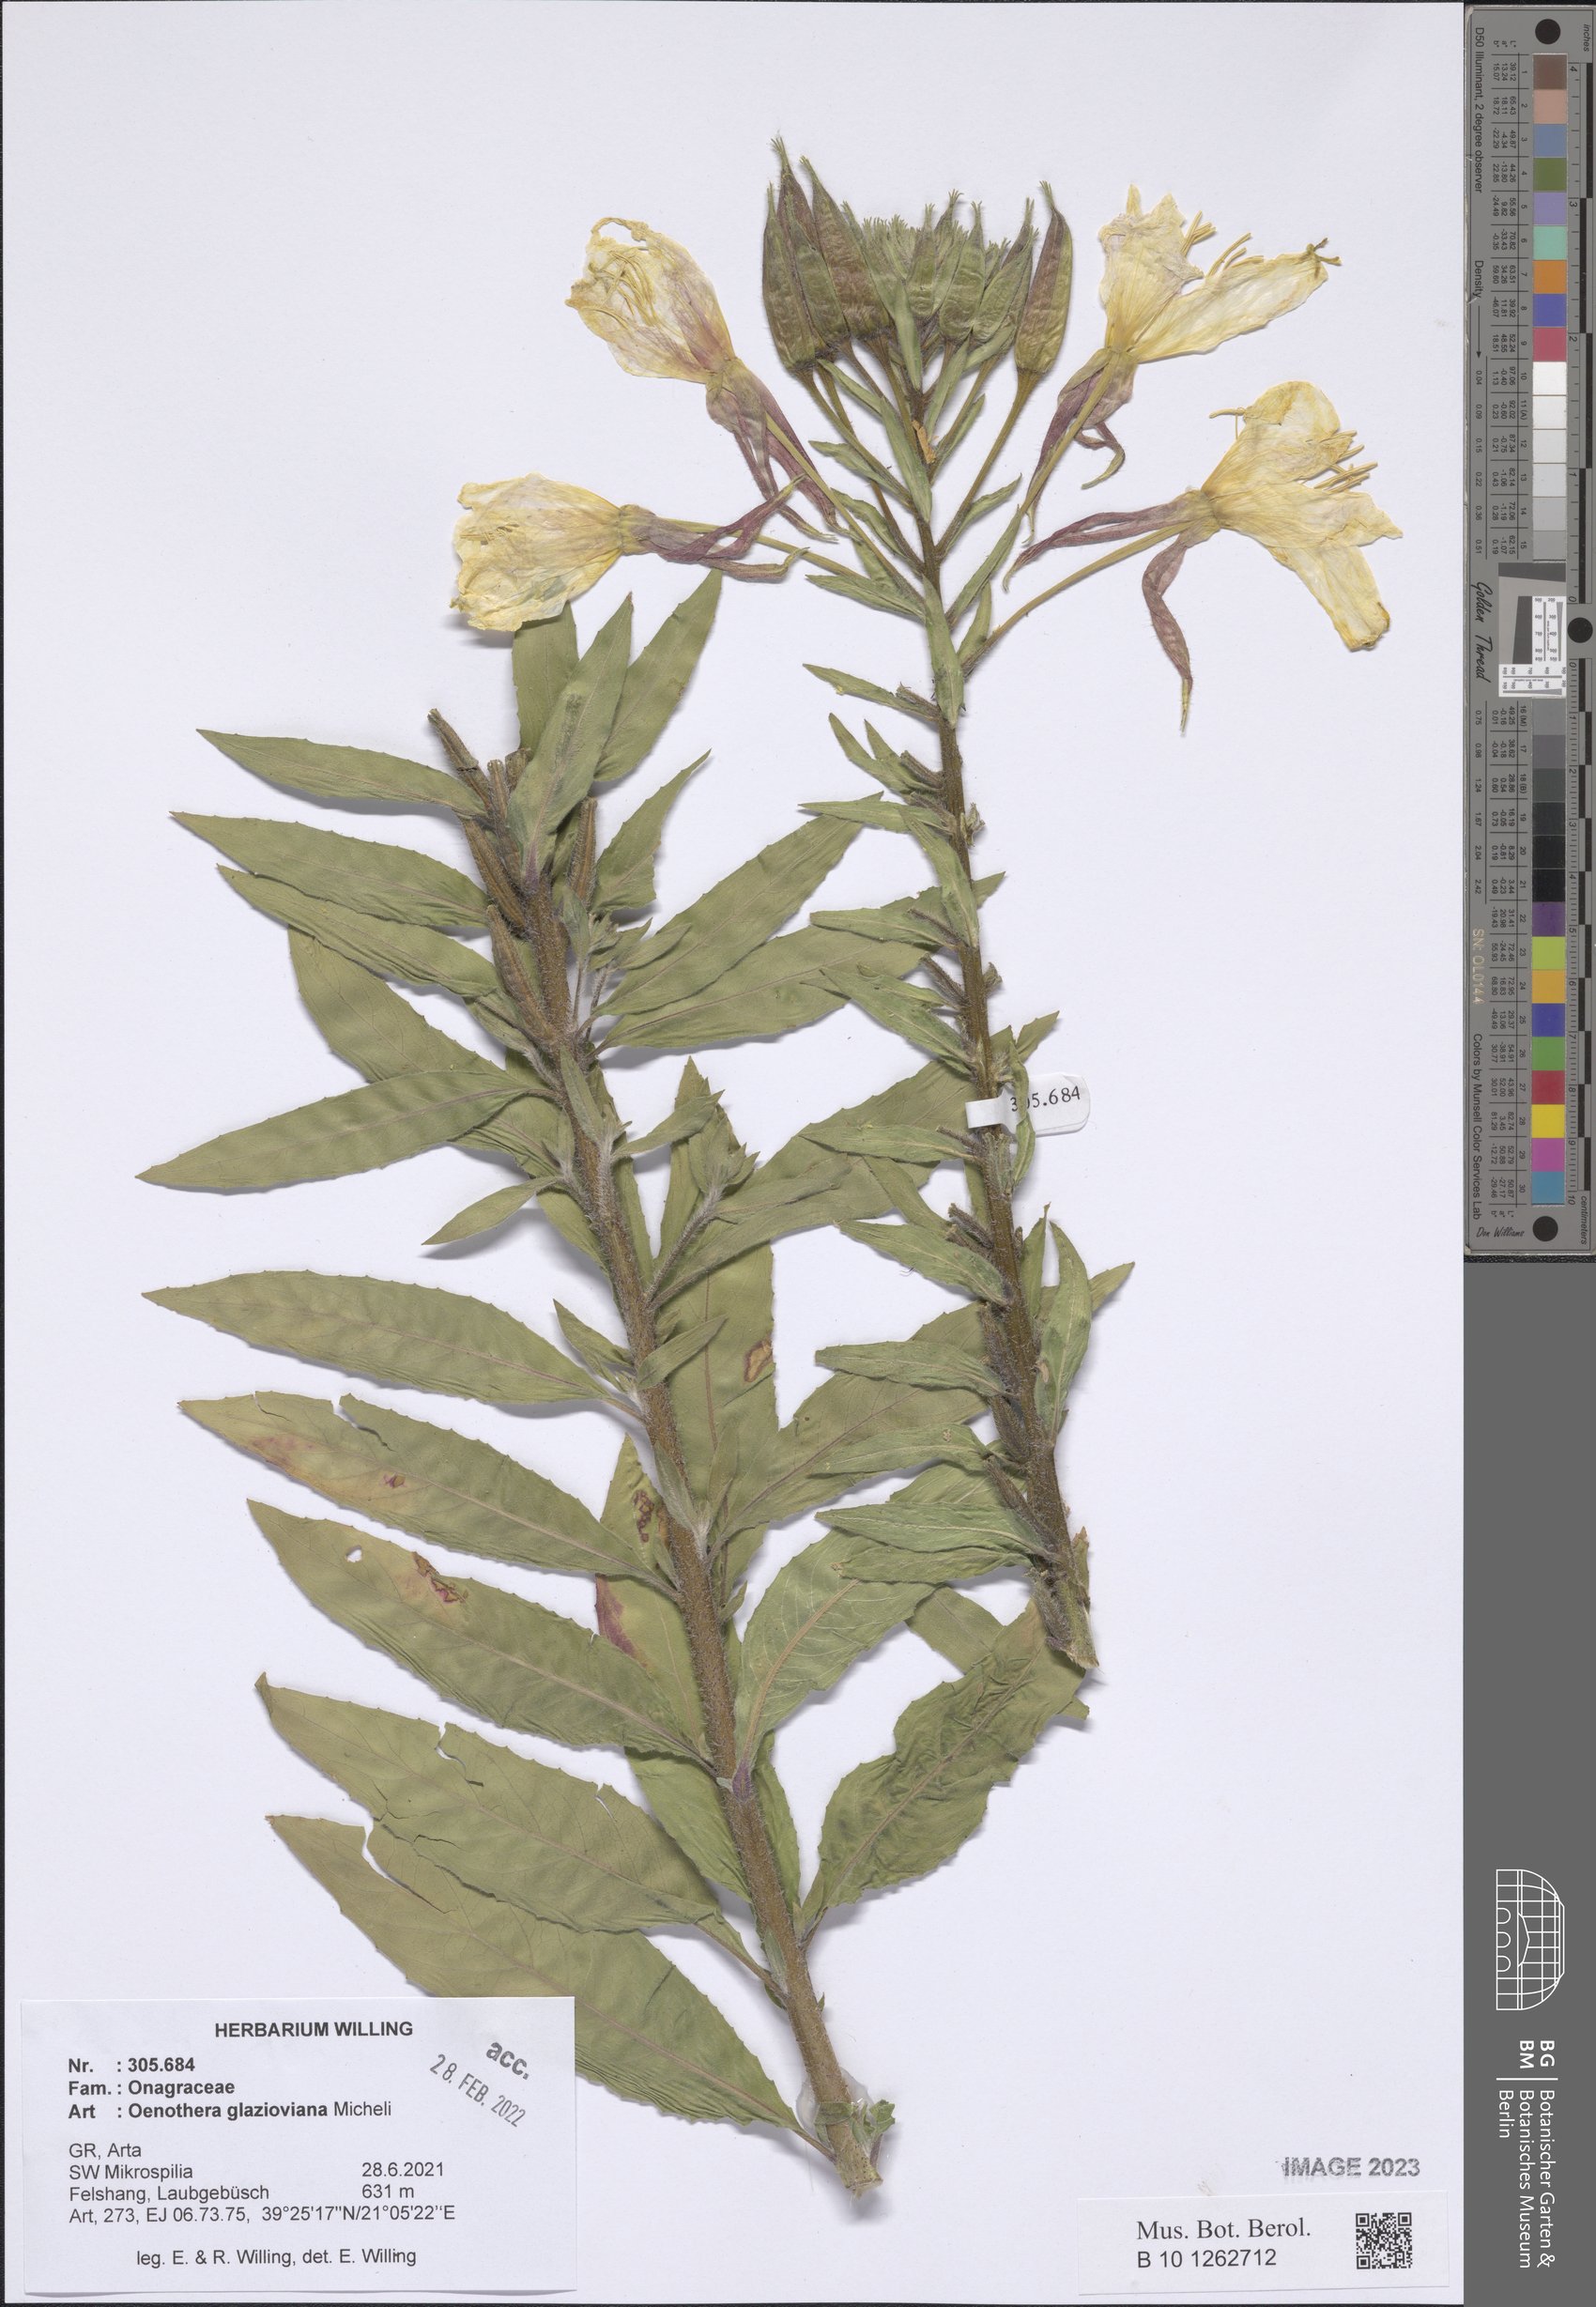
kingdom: Plantae
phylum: Tracheophyta
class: Magnoliopsida
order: Myrtales
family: Onagraceae
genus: Oenothera
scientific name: Oenothera glazioviana
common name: Large-flowered evening-primrose
